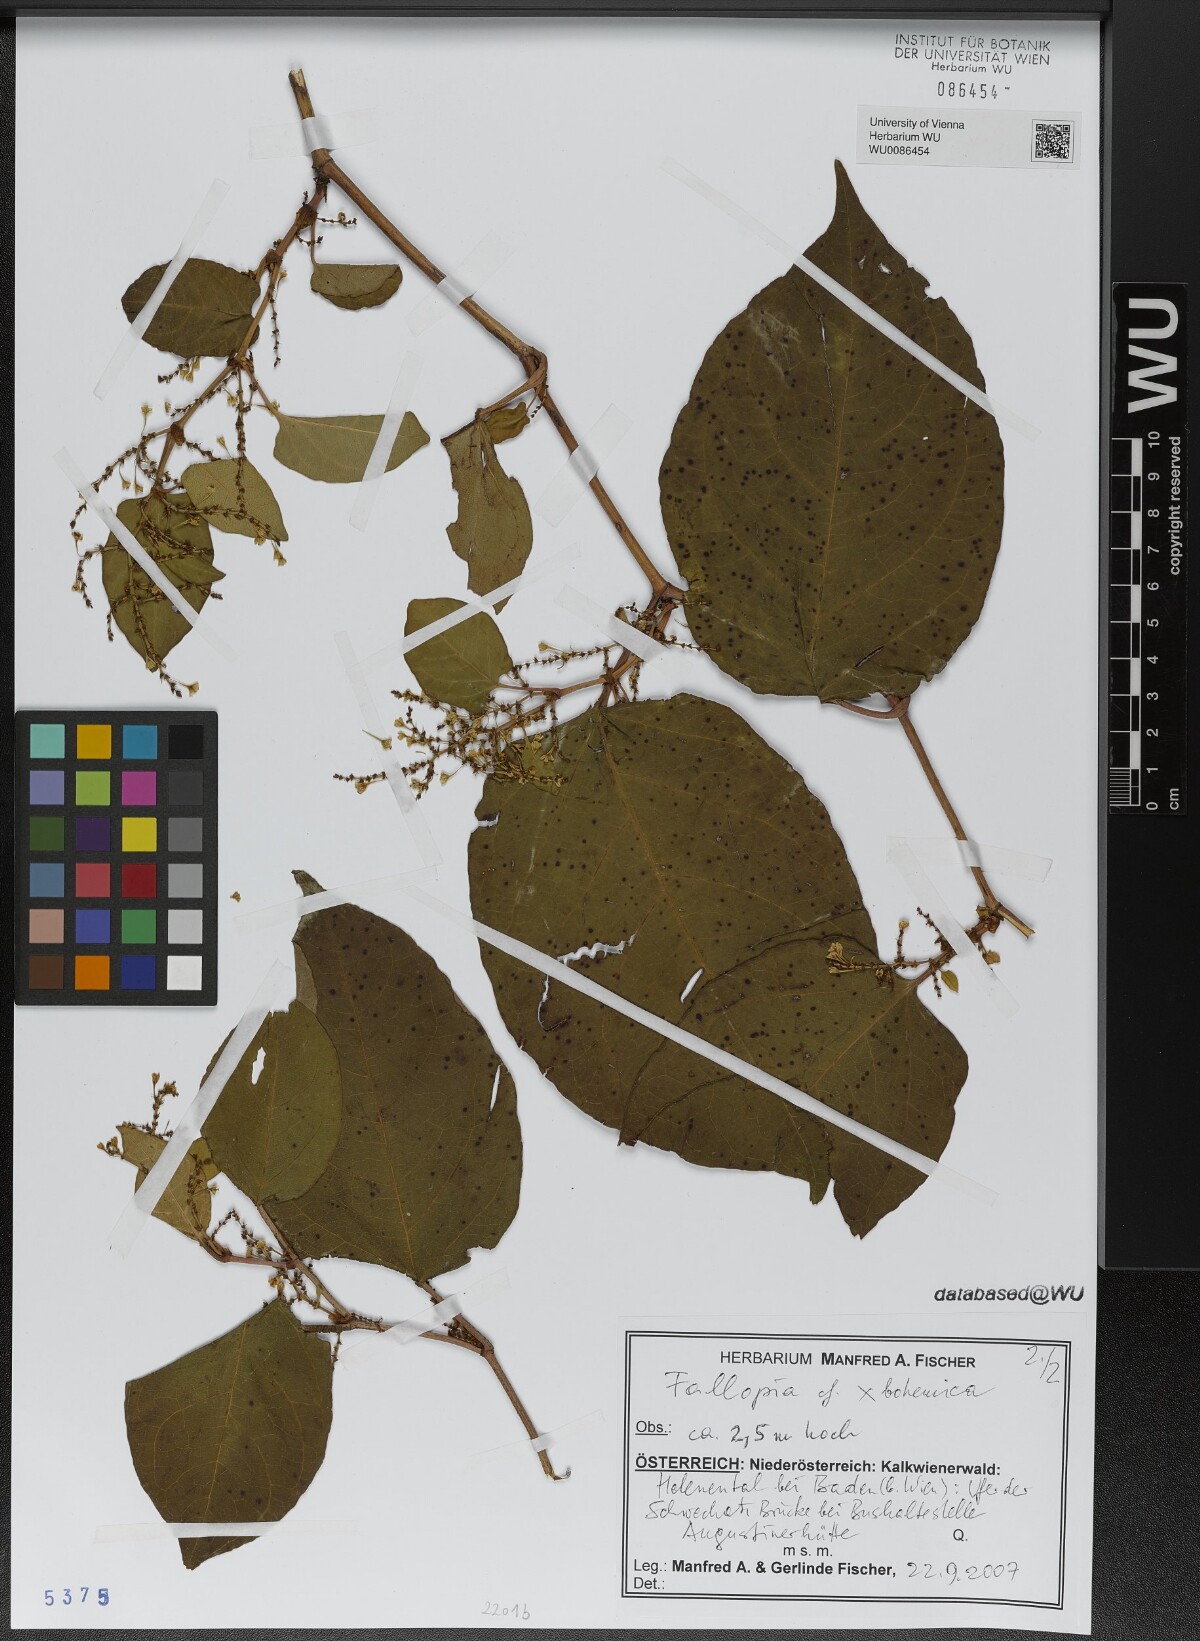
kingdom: Plantae
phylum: Tracheophyta
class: Magnoliopsida
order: Caryophyllales
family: Polygonaceae
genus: Reynoutria
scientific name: Reynoutria bohemica
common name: Bohemian knotweed
